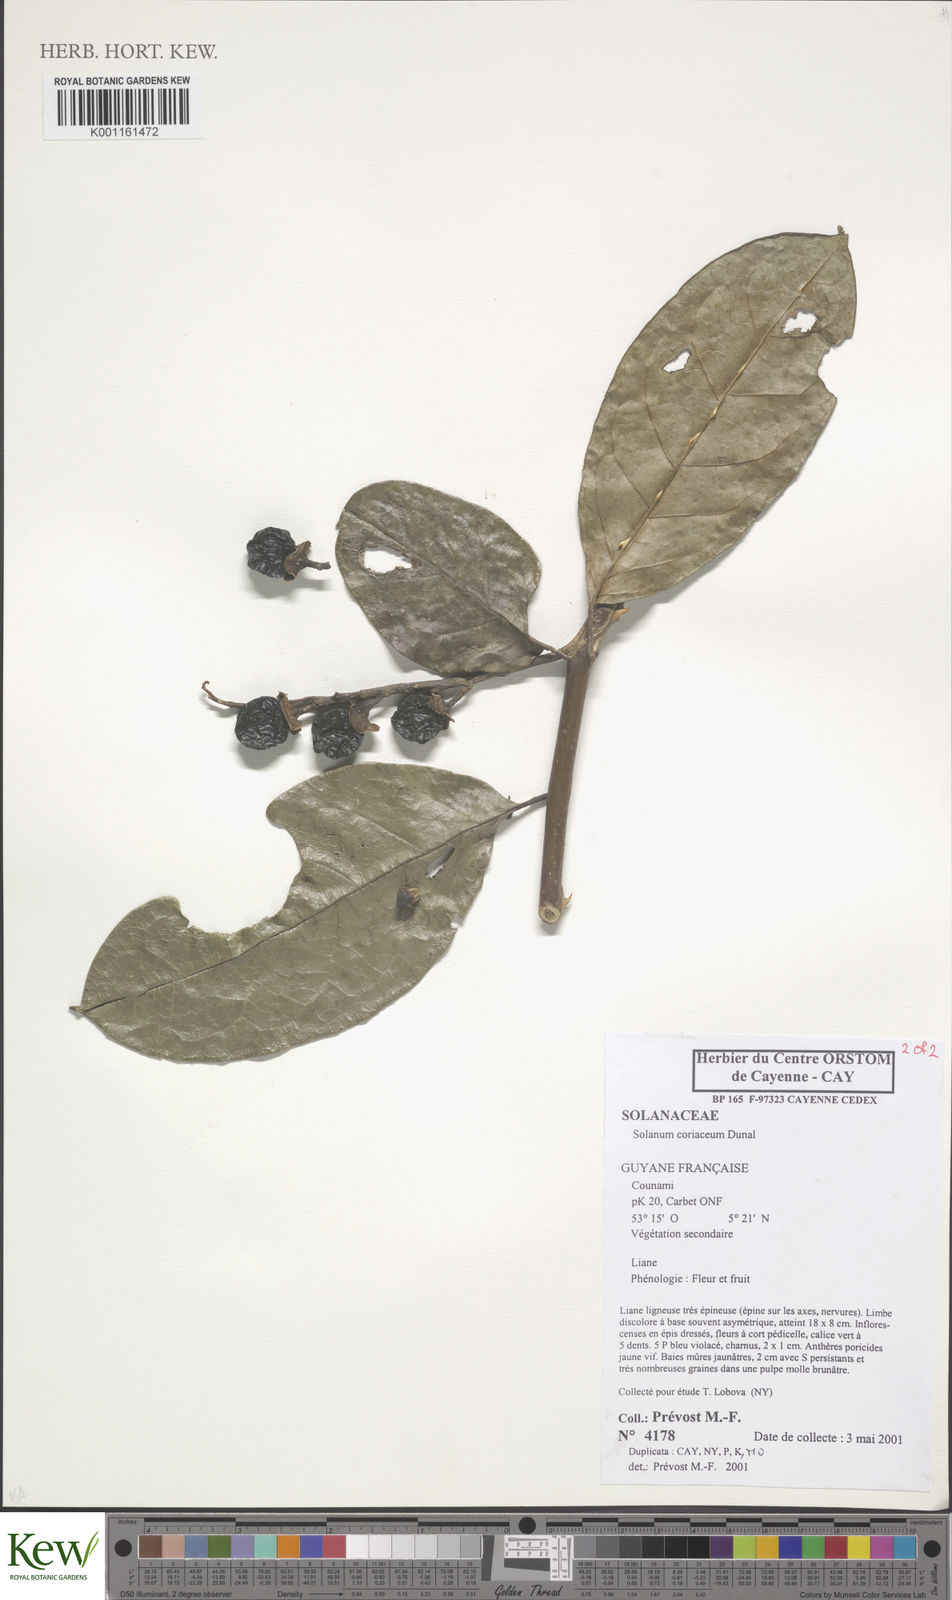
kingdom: Plantae
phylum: Tracheophyta
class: Magnoliopsida
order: Solanales
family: Solanaceae
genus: Solanum
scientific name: Solanum coriaceum
